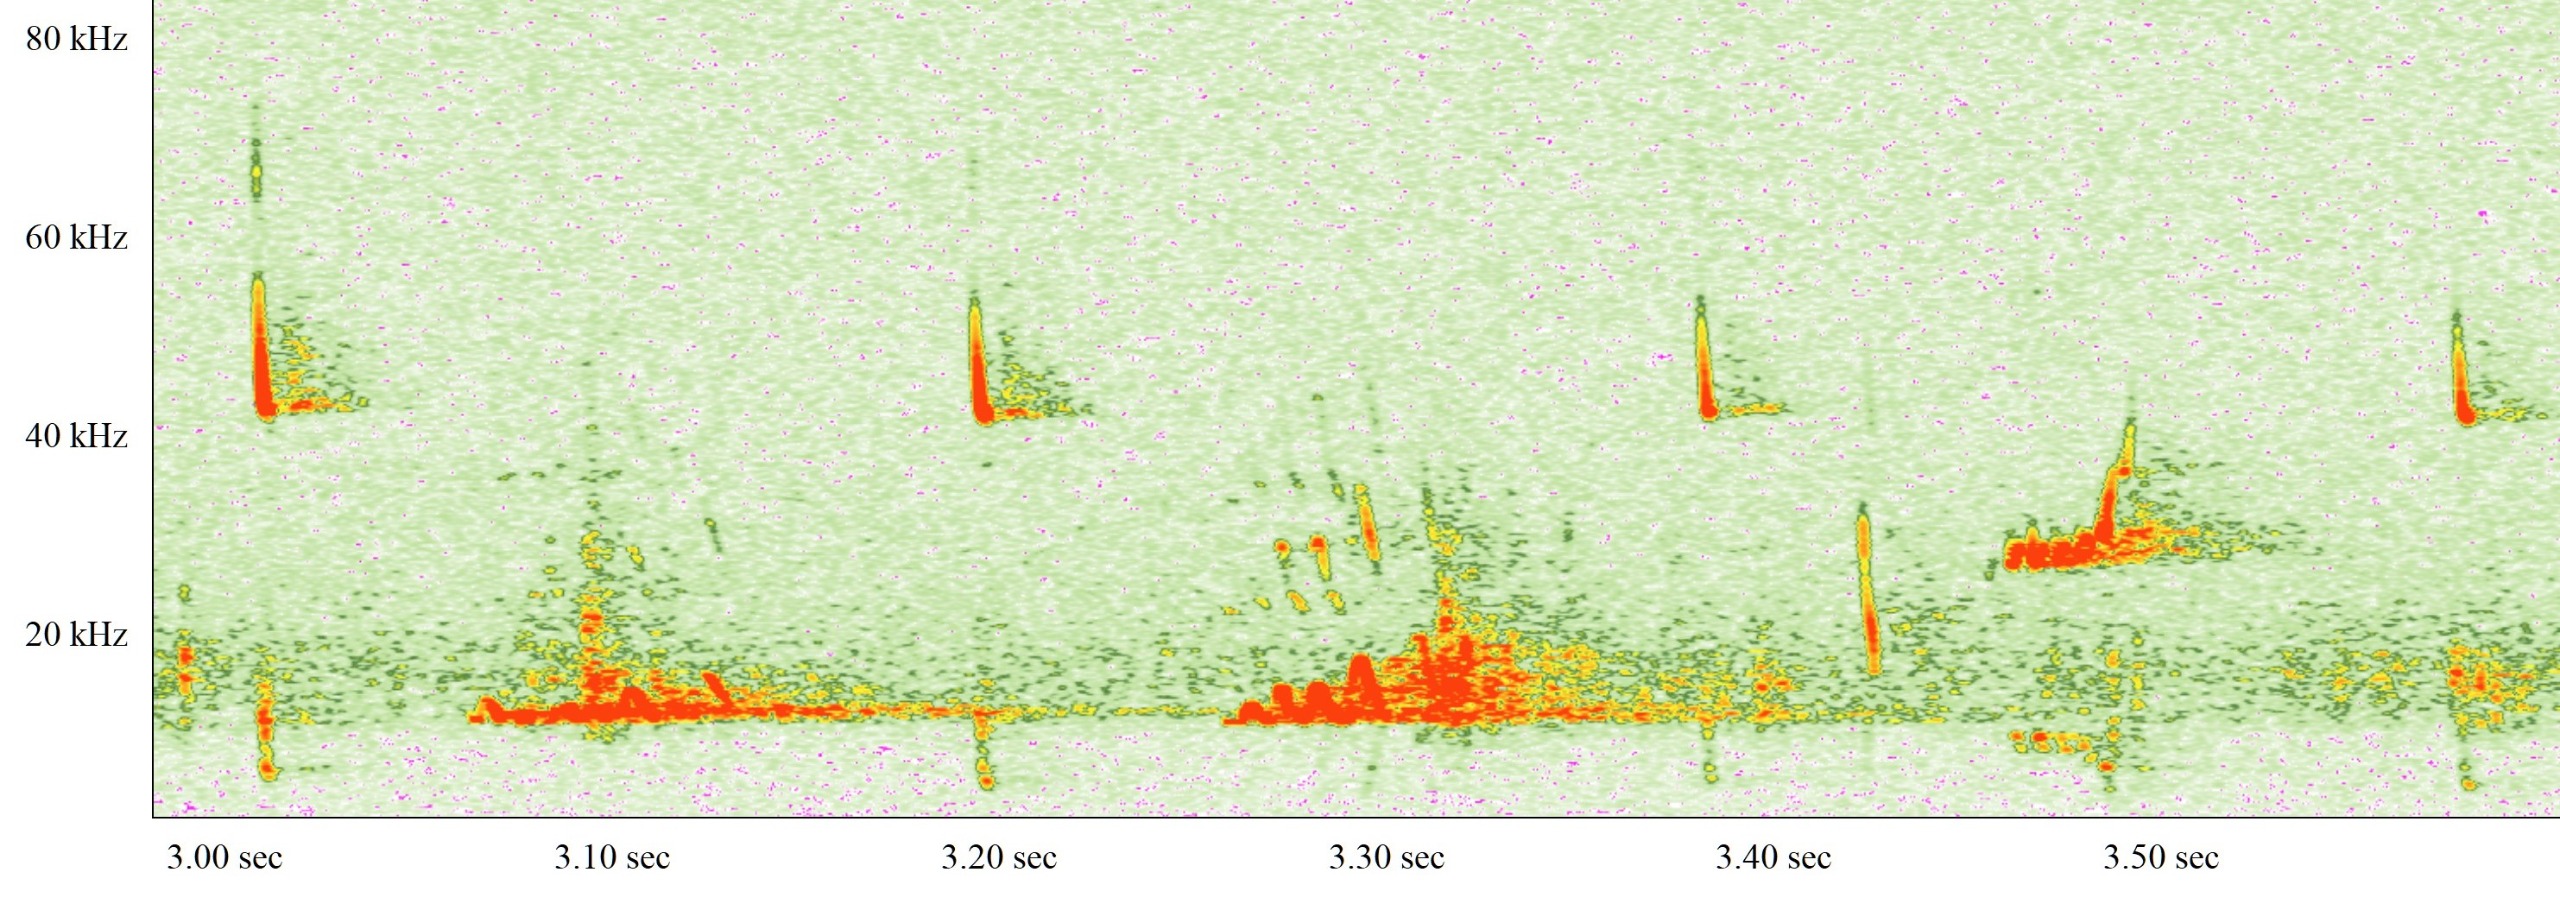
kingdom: Animalia
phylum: Chordata
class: Mammalia
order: Chiroptera
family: Vespertilionidae
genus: Pipistrellus
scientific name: Pipistrellus nathusii
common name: Troldflagermus
